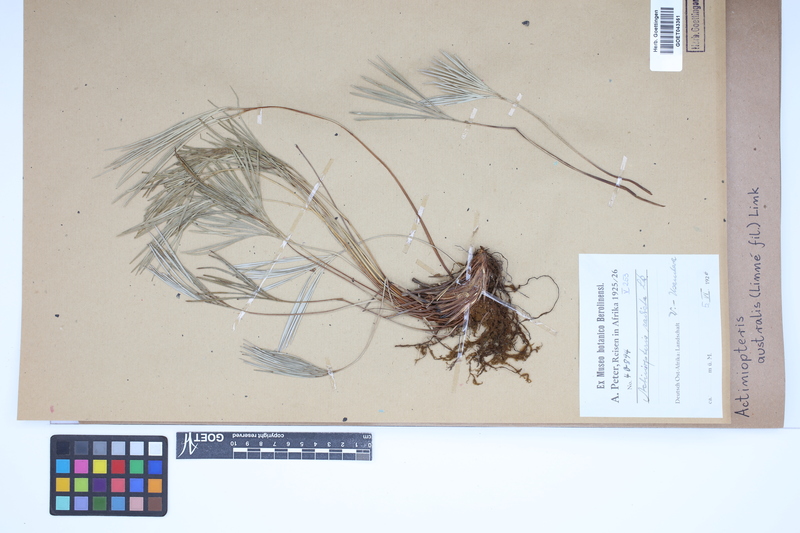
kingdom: Plantae
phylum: Tracheophyta
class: Polypodiopsida
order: Polypodiales
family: Pteridaceae
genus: Actiniopteris
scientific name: Actiniopteris australis
